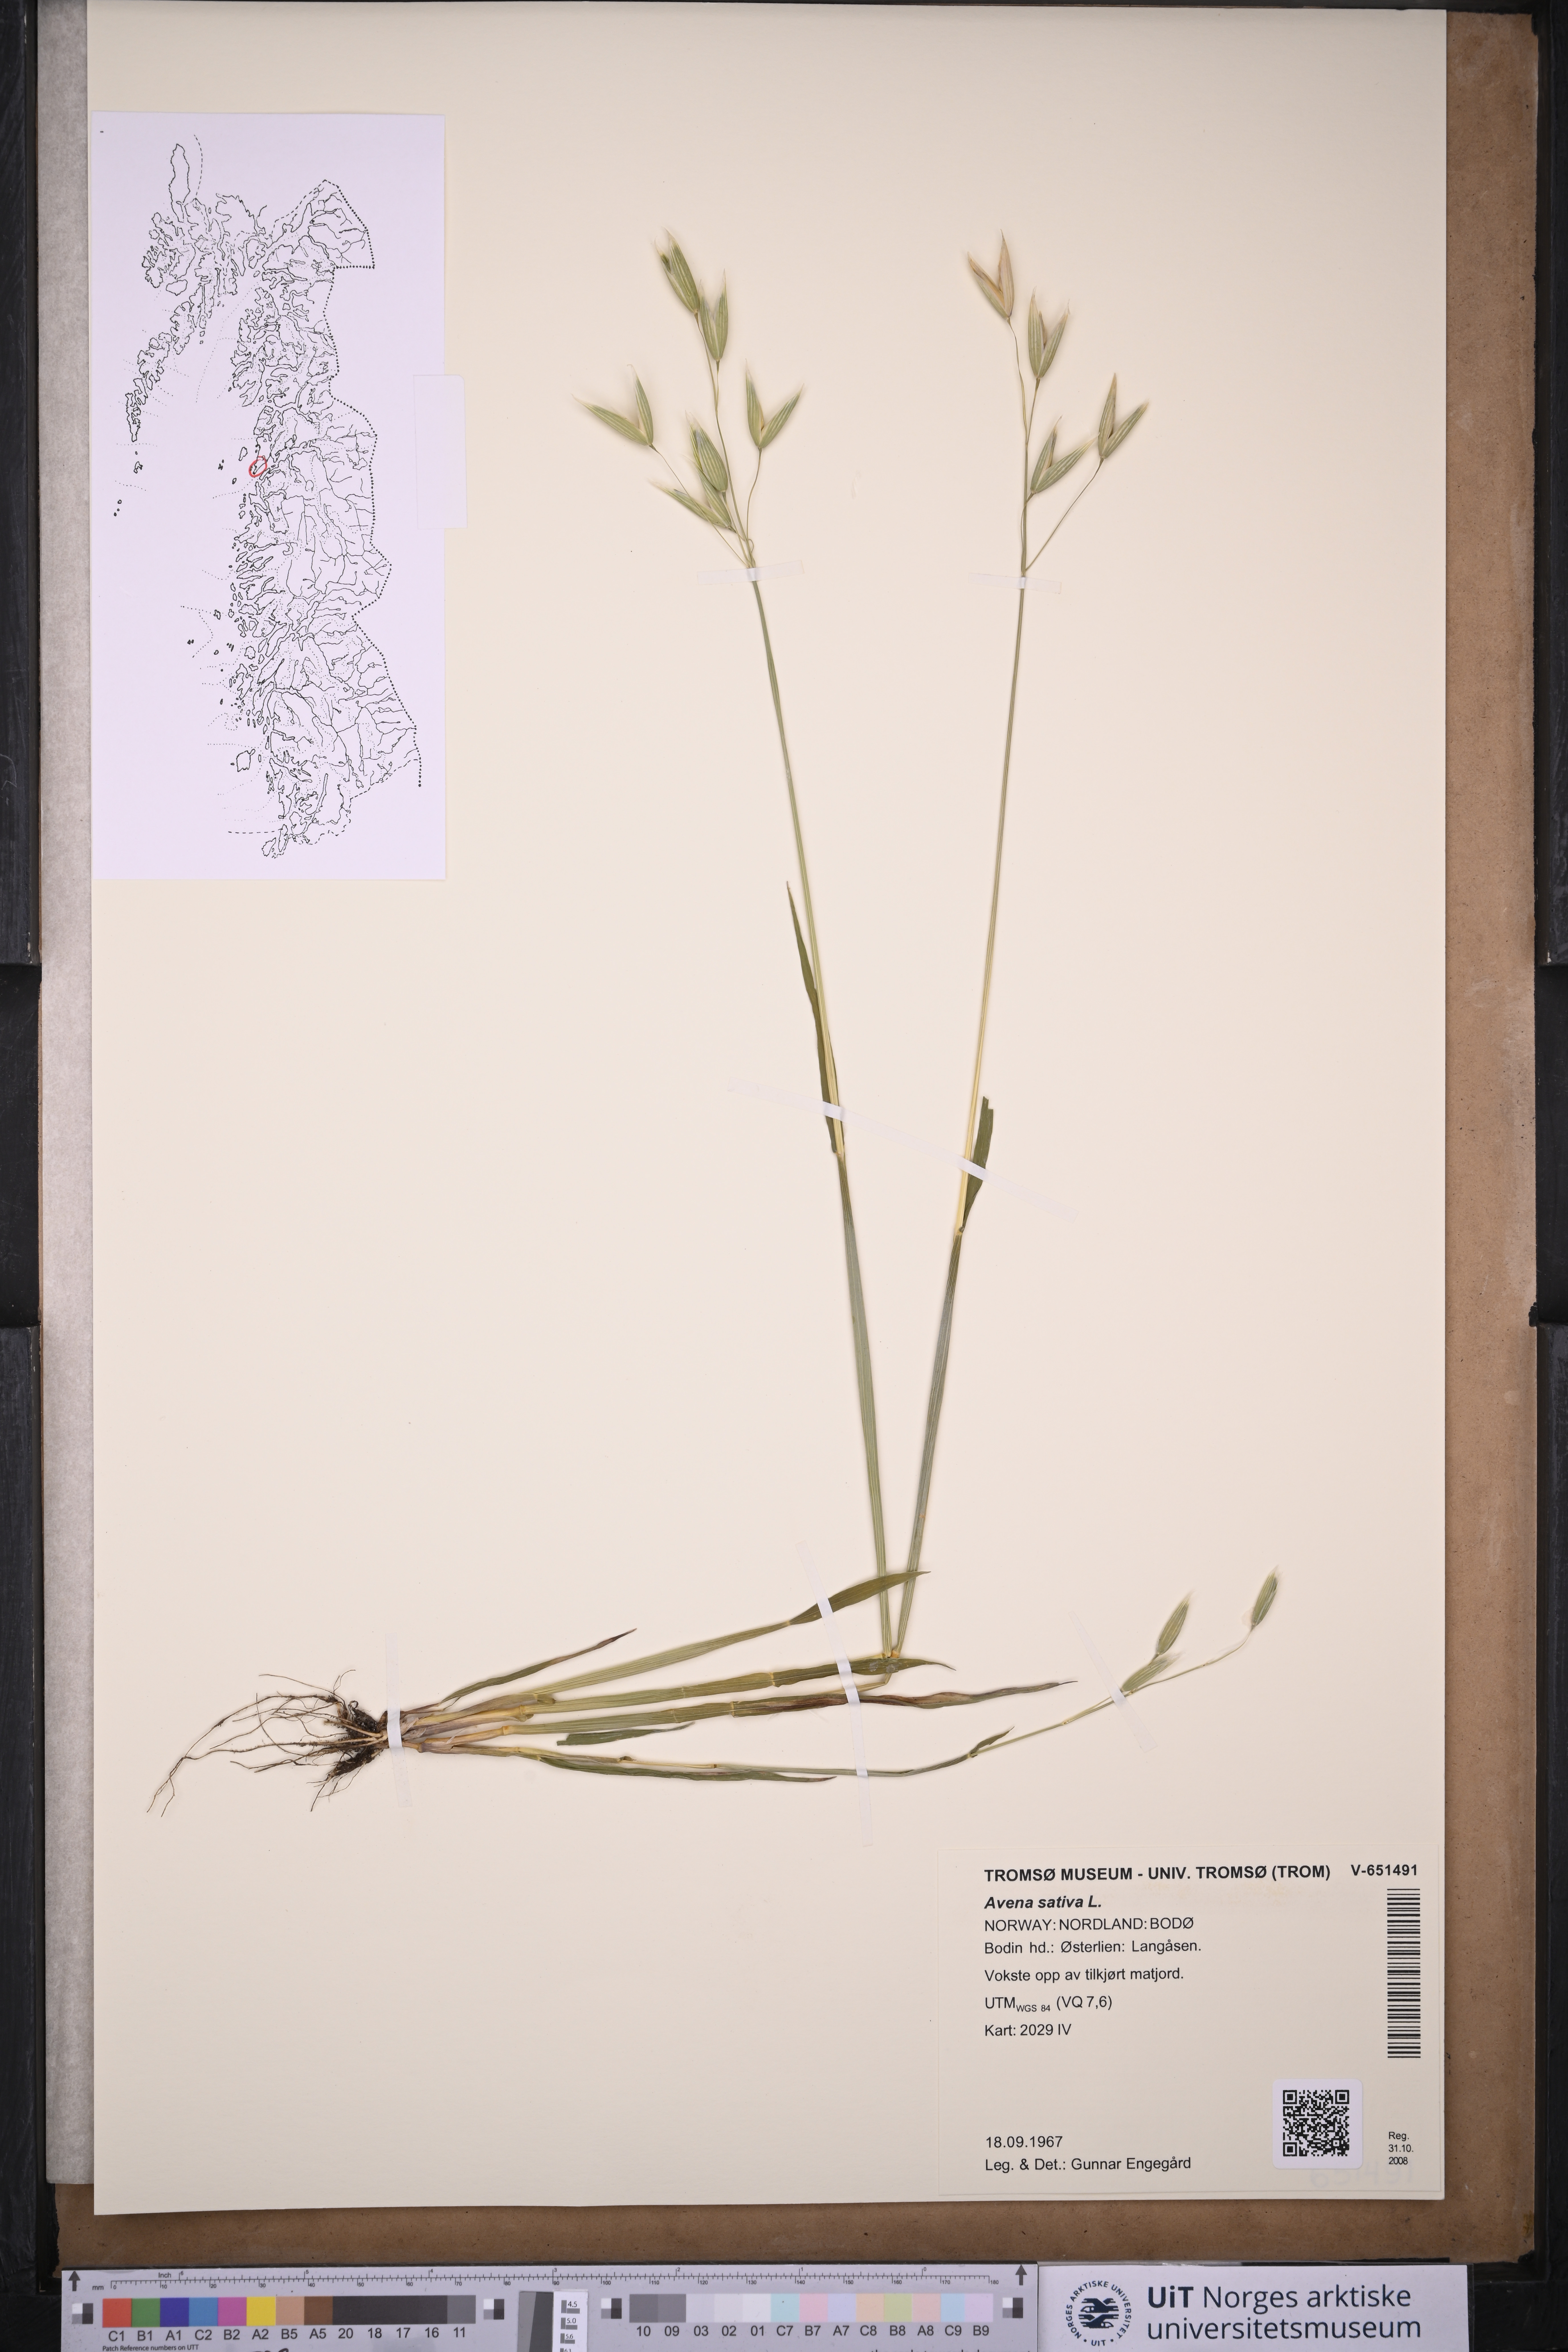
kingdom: Plantae
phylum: Tracheophyta
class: Liliopsida
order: Poales
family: Poaceae
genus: Avena
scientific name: Avena sativa
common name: Oat
